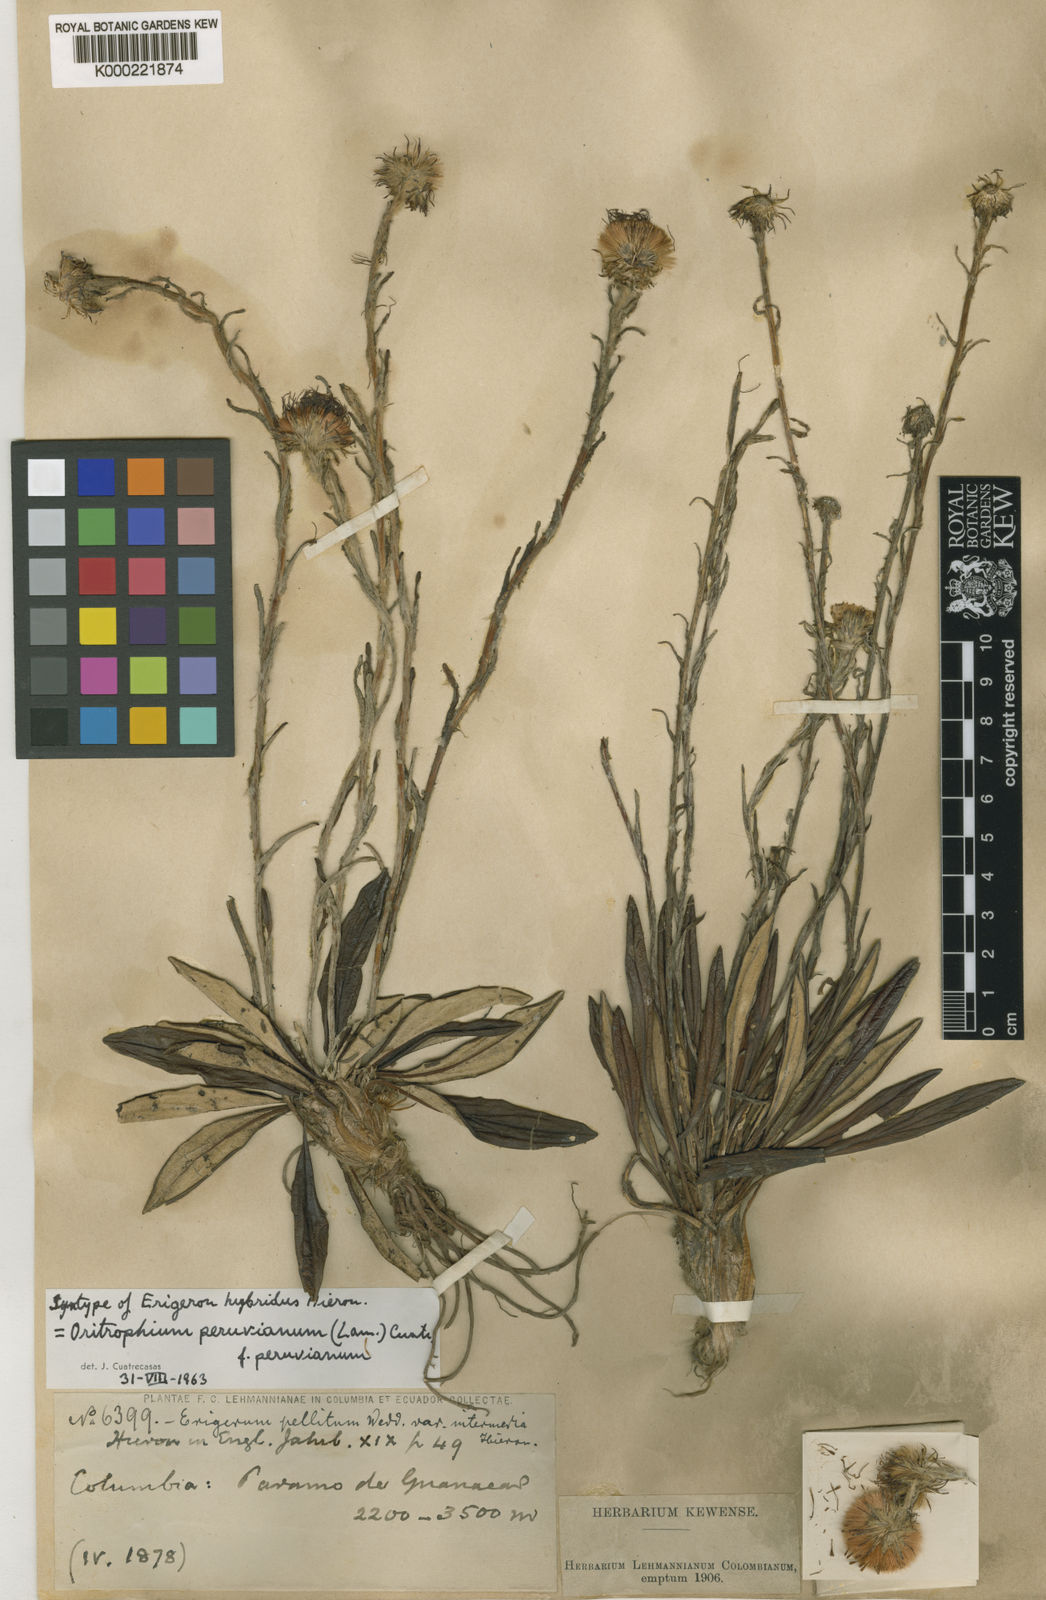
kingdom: Plantae
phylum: Tracheophyta
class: Magnoliopsida
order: Asterales
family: Asteraceae
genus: Oritrophium
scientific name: Oritrophium peruvianum
